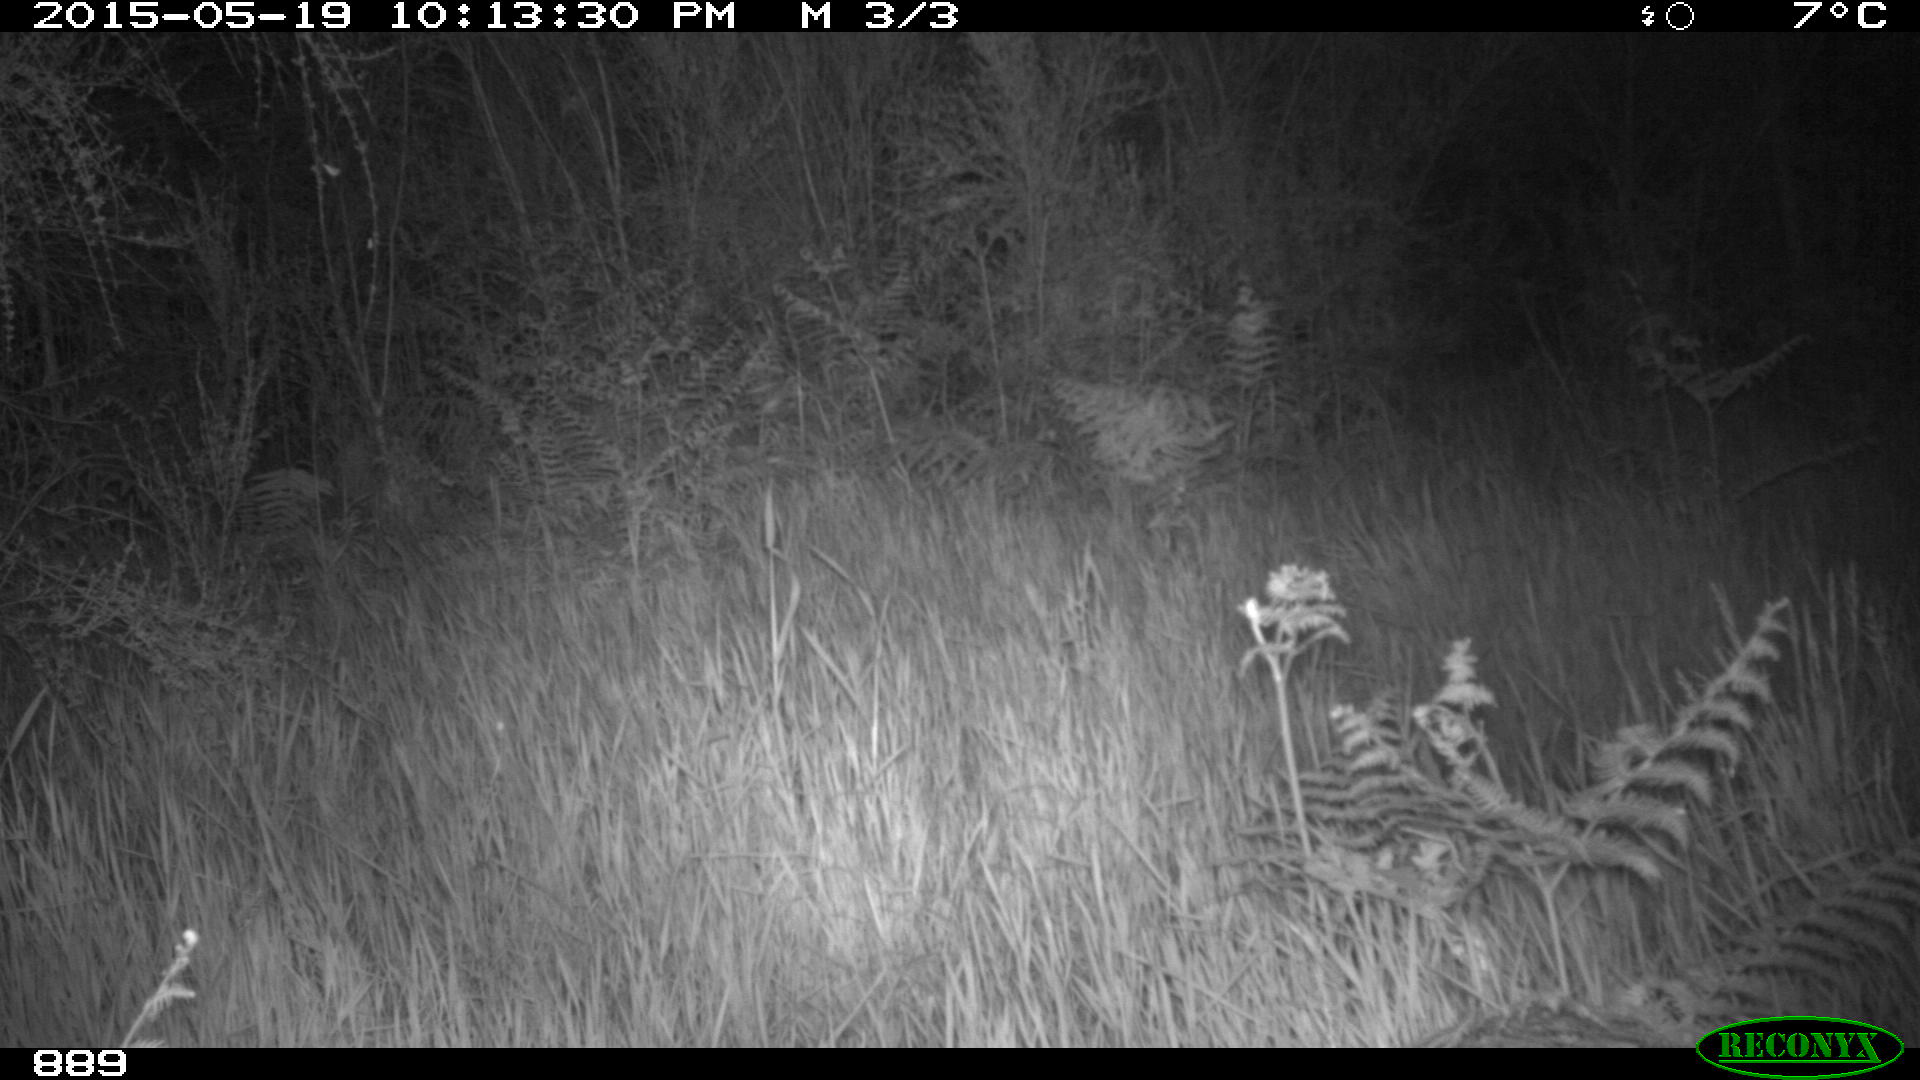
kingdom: Animalia
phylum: Chordata
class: Mammalia
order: Carnivora
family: Canidae
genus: Vulpes
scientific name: Vulpes vulpes
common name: Red fox
